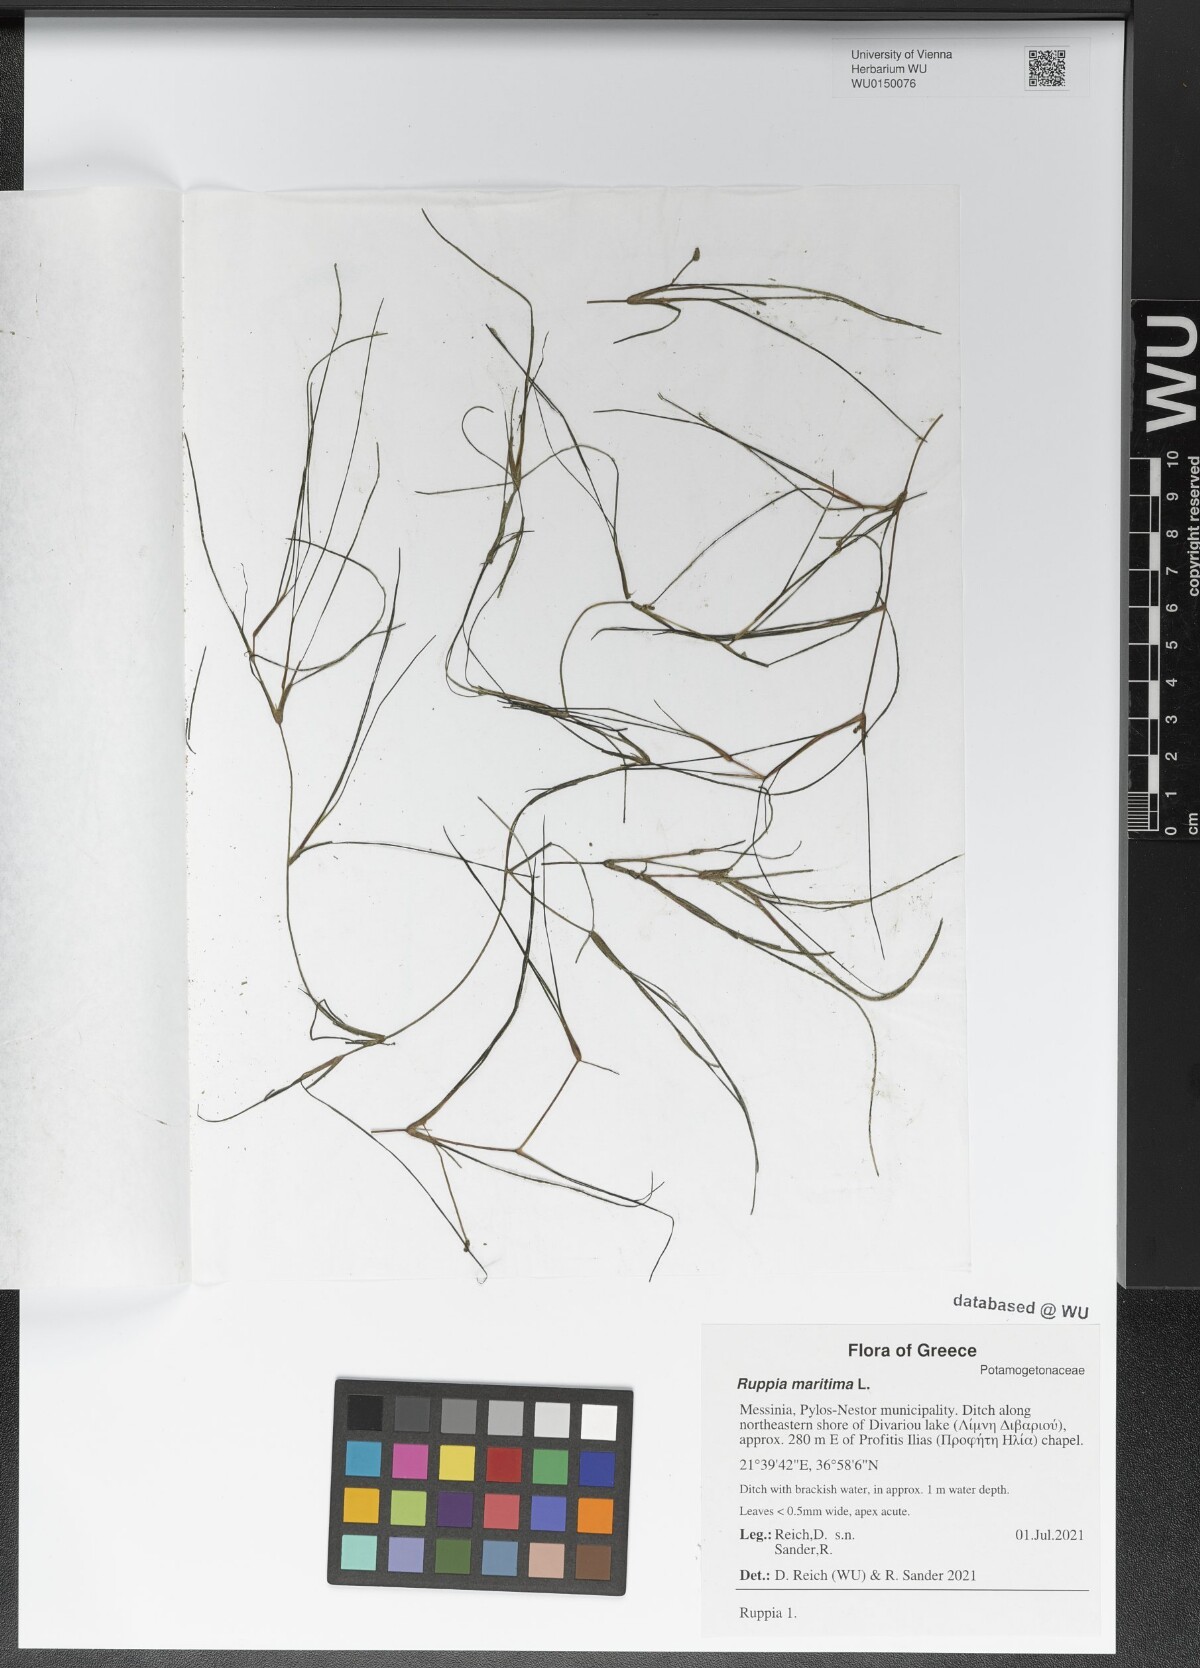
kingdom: Plantae
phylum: Tracheophyta
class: Liliopsida
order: Alismatales
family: Ruppiaceae
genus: Ruppia
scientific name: Ruppia maritima
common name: Beaked tasselweed
